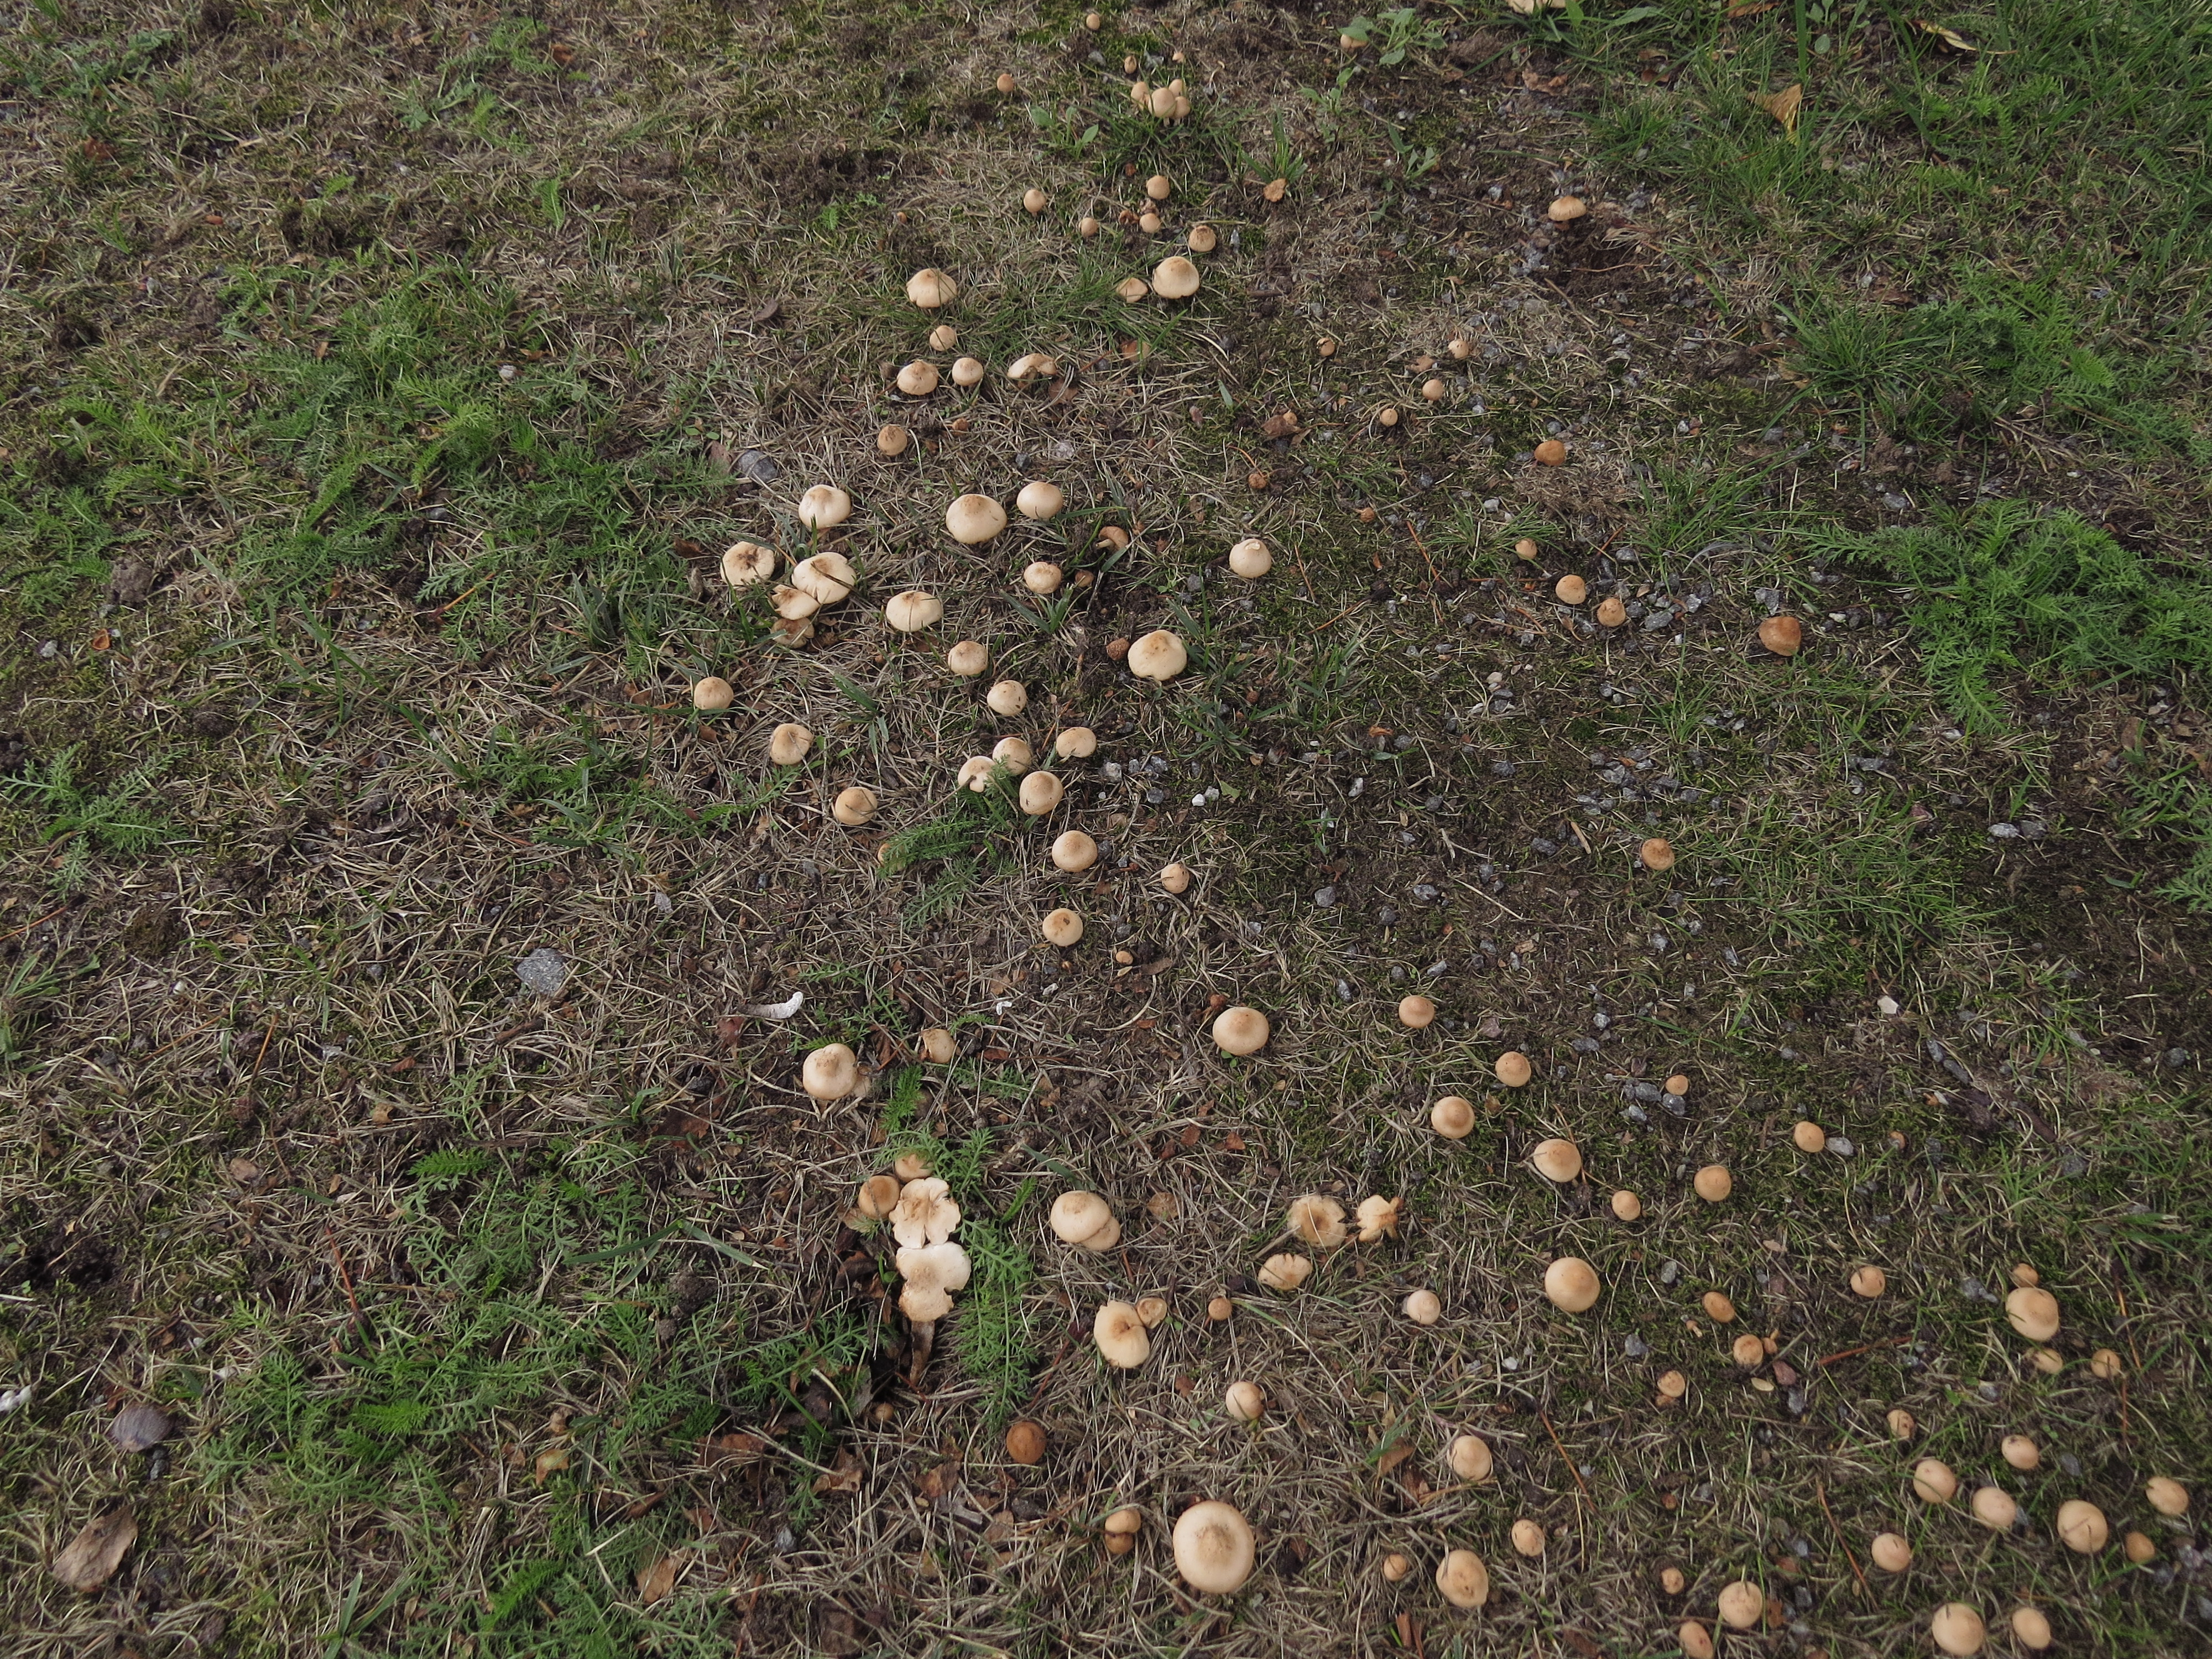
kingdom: Fungi
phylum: Basidiomycota
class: Agaricomycetes
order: Agaricales
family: Marasmiaceae
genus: Marasmius
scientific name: Marasmius oreades
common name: Fairy ring champignon
